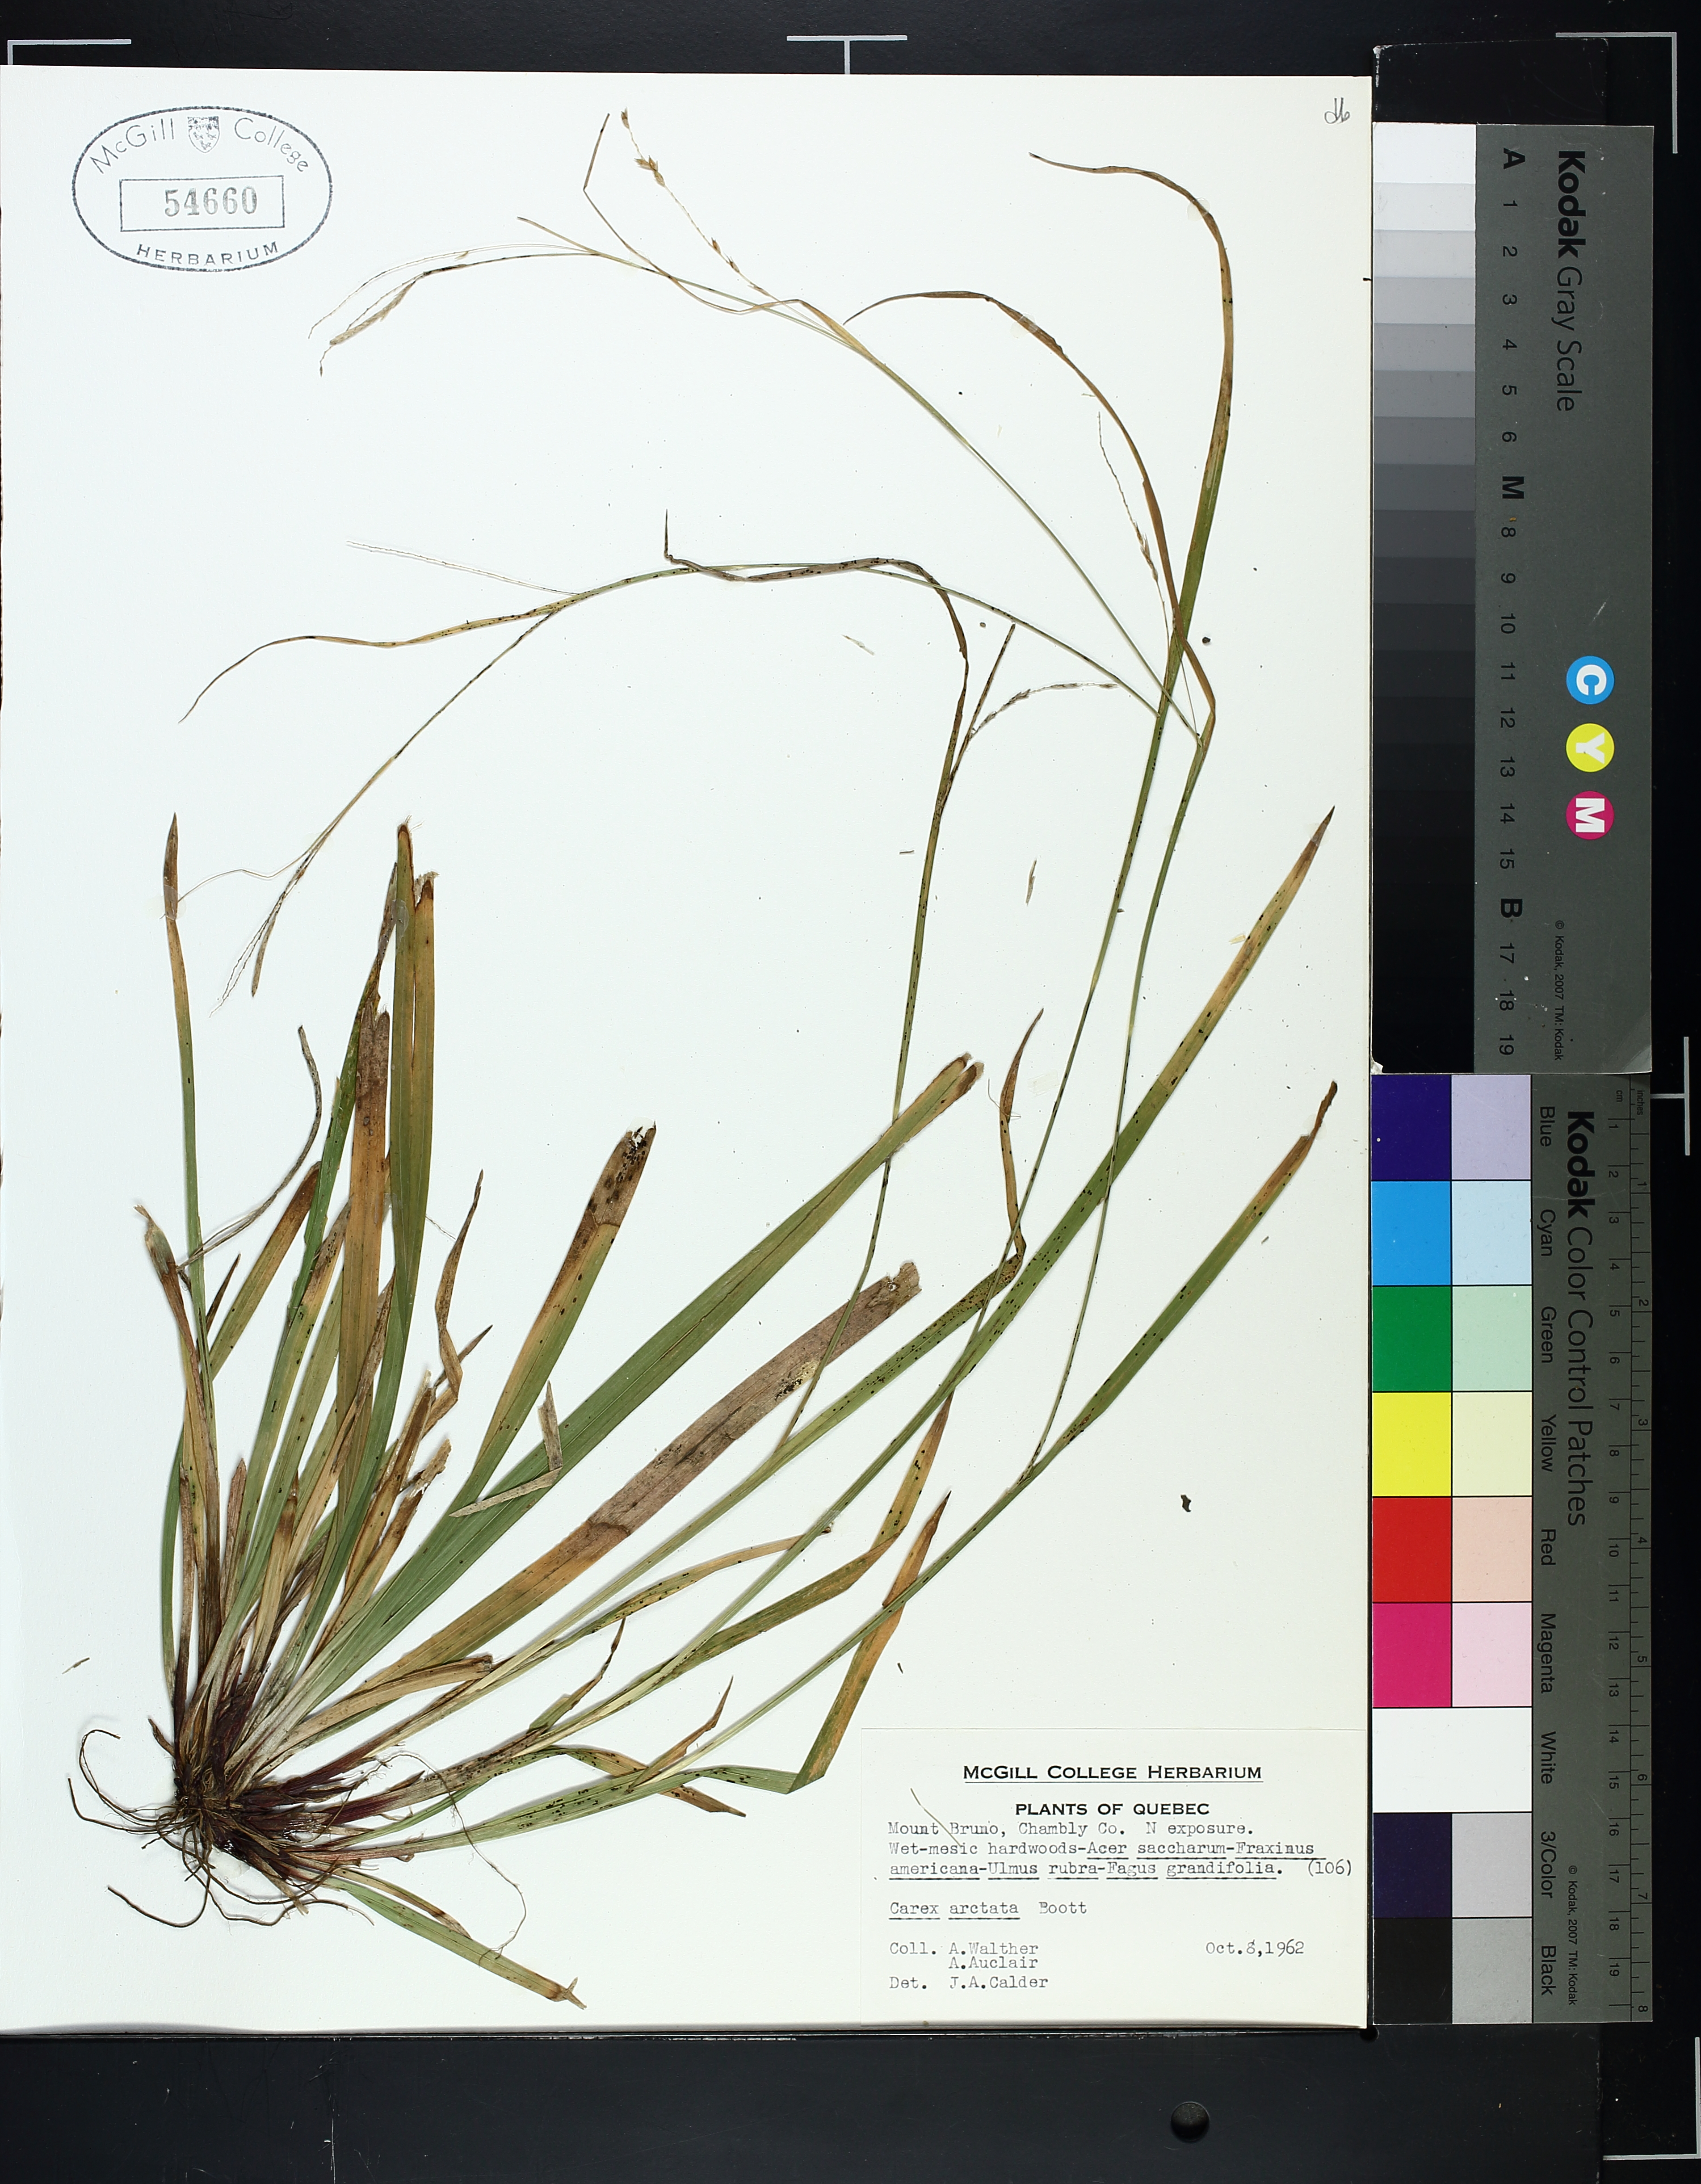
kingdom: Plantae
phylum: Tracheophyta
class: Liliopsida
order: Poales
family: Cyperaceae
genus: Carex
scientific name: Carex arctata
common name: Black sedge
